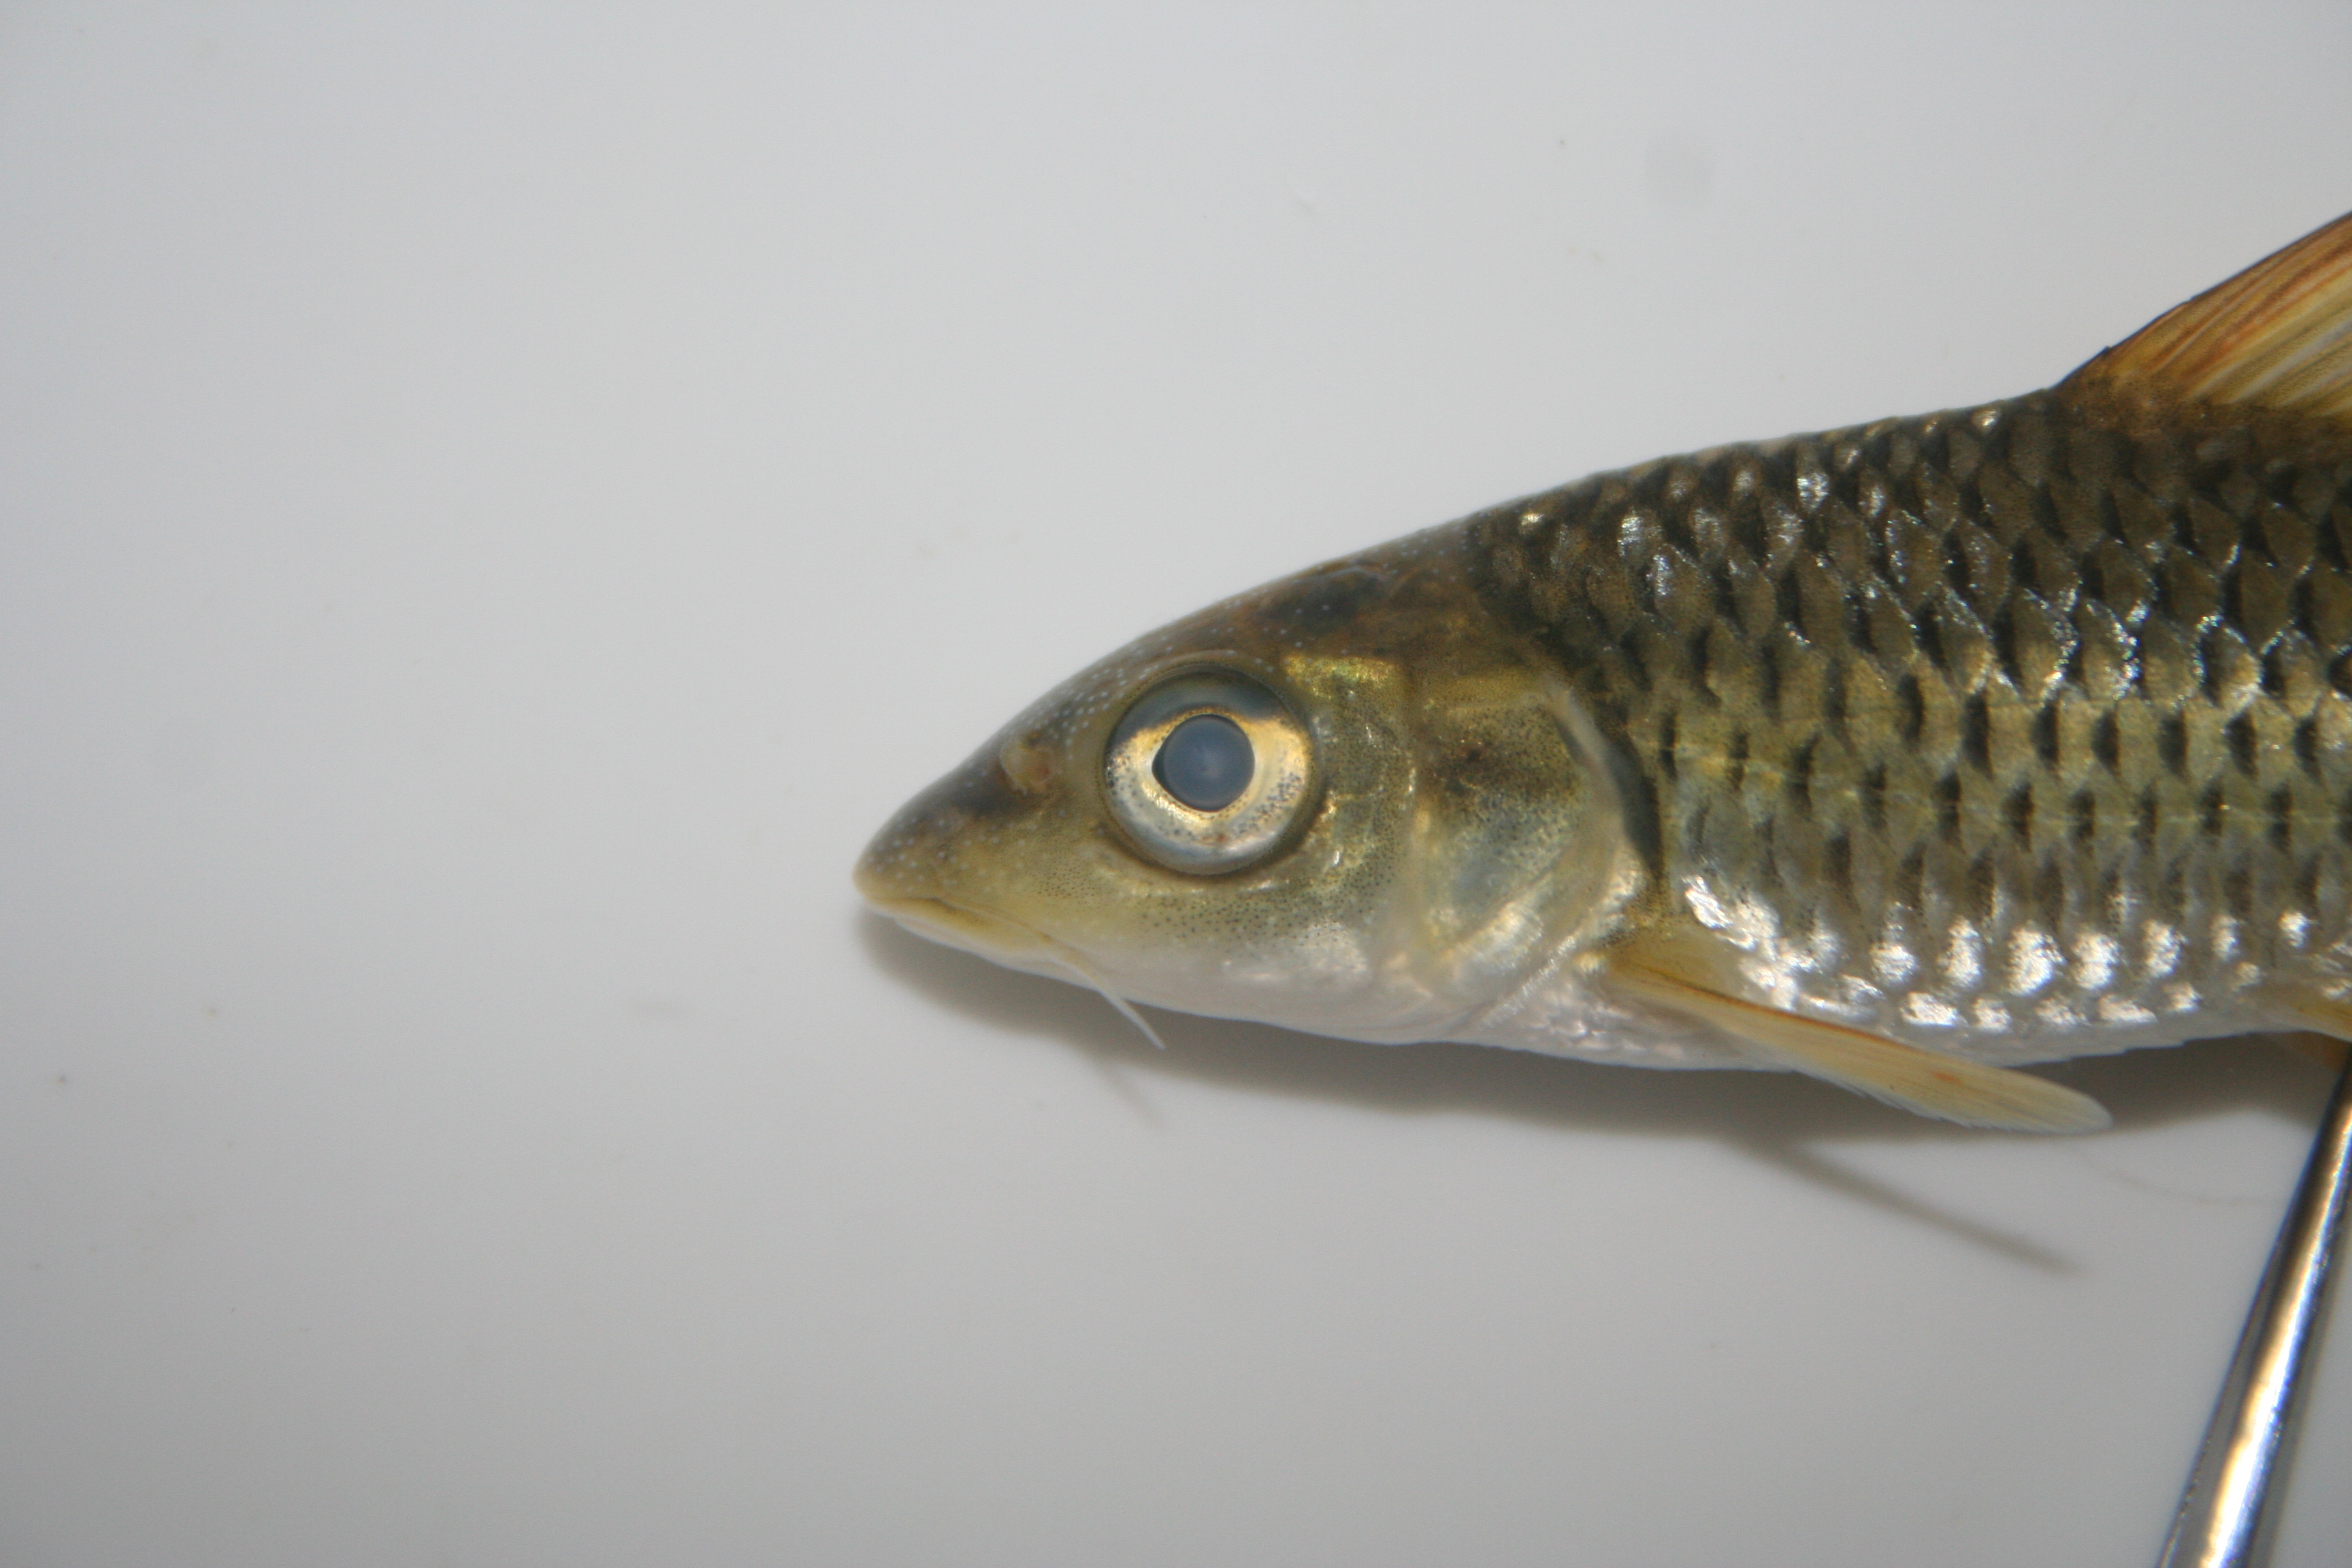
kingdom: Animalia
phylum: Chordata
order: Cypriniformes
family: Cyprinidae
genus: Labeobarbus
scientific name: Labeobarbus rhinophorus
